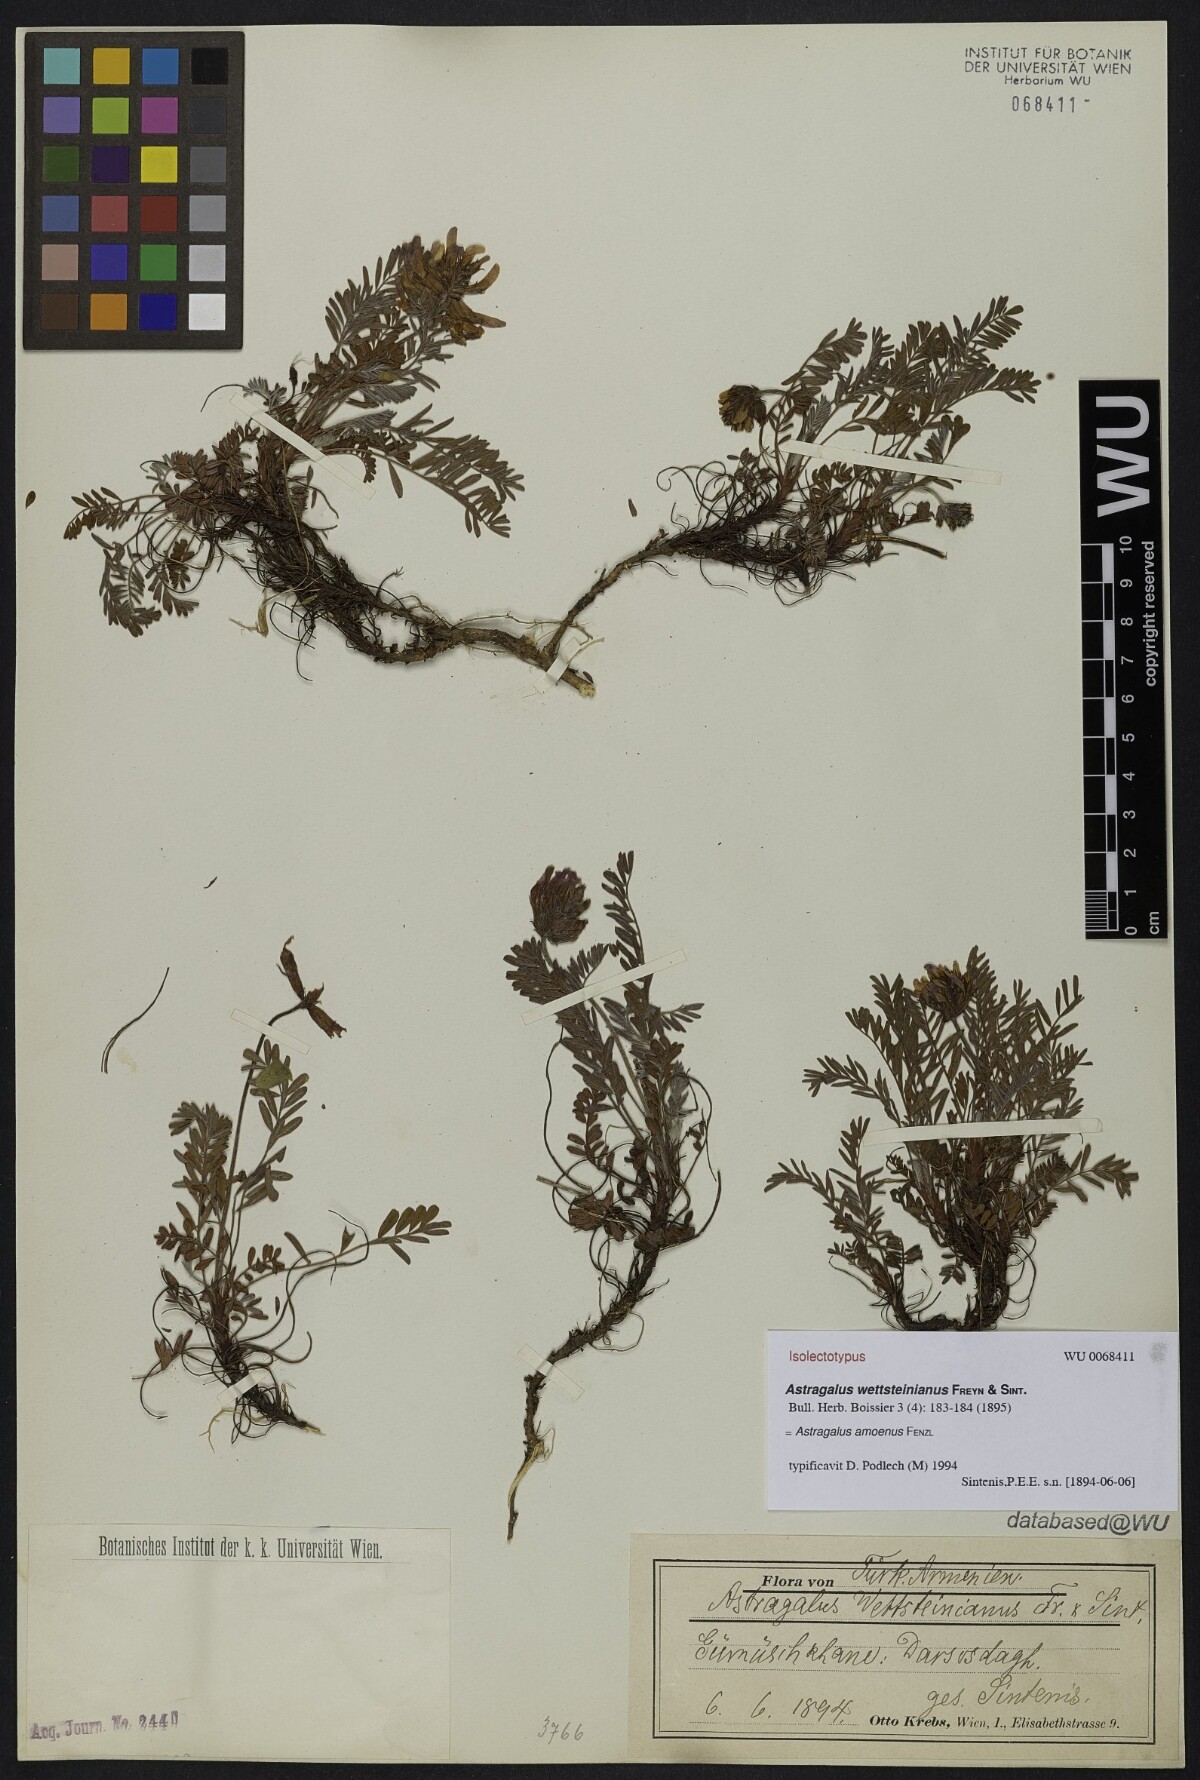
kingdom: Plantae
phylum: Tracheophyta
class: Magnoliopsida
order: Fabales
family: Fabaceae
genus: Astragalus
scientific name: Astragalus amoenus
